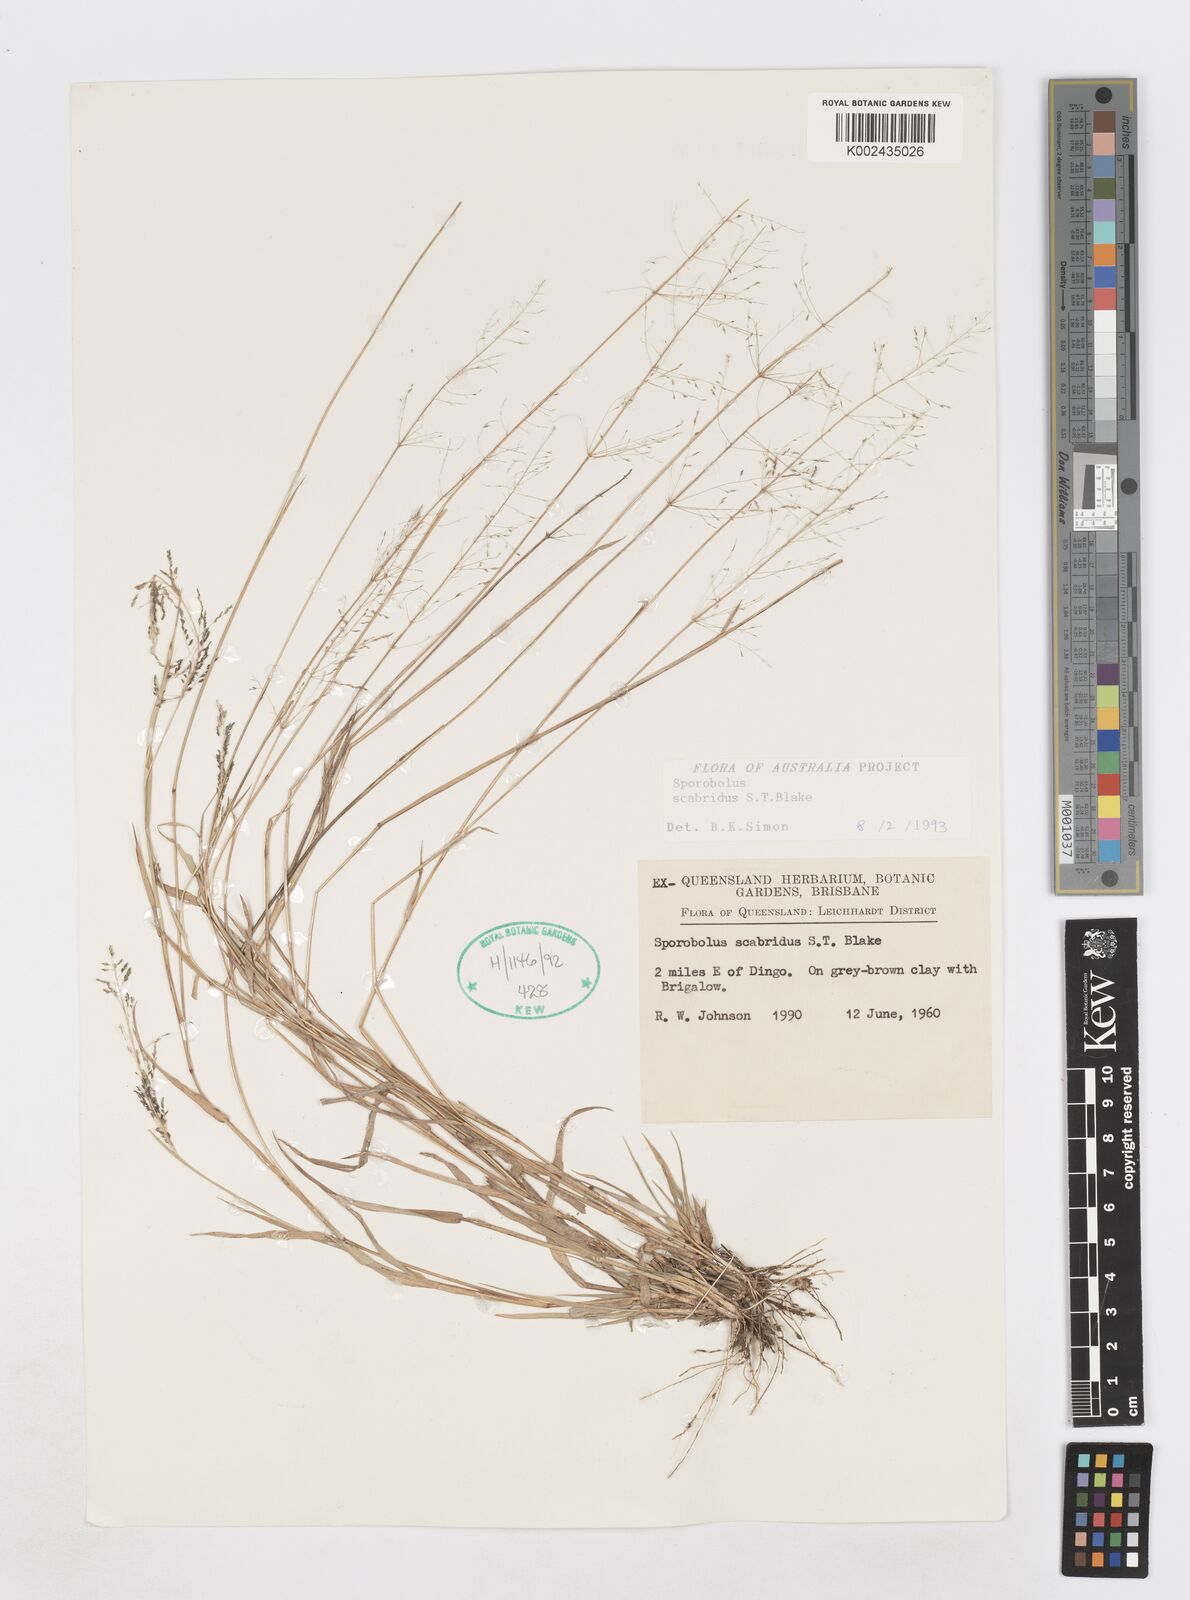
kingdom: Plantae
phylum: Tracheophyta
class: Liliopsida
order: Poales
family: Poaceae
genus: Sporobolus
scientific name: Sporobolus scabridus
